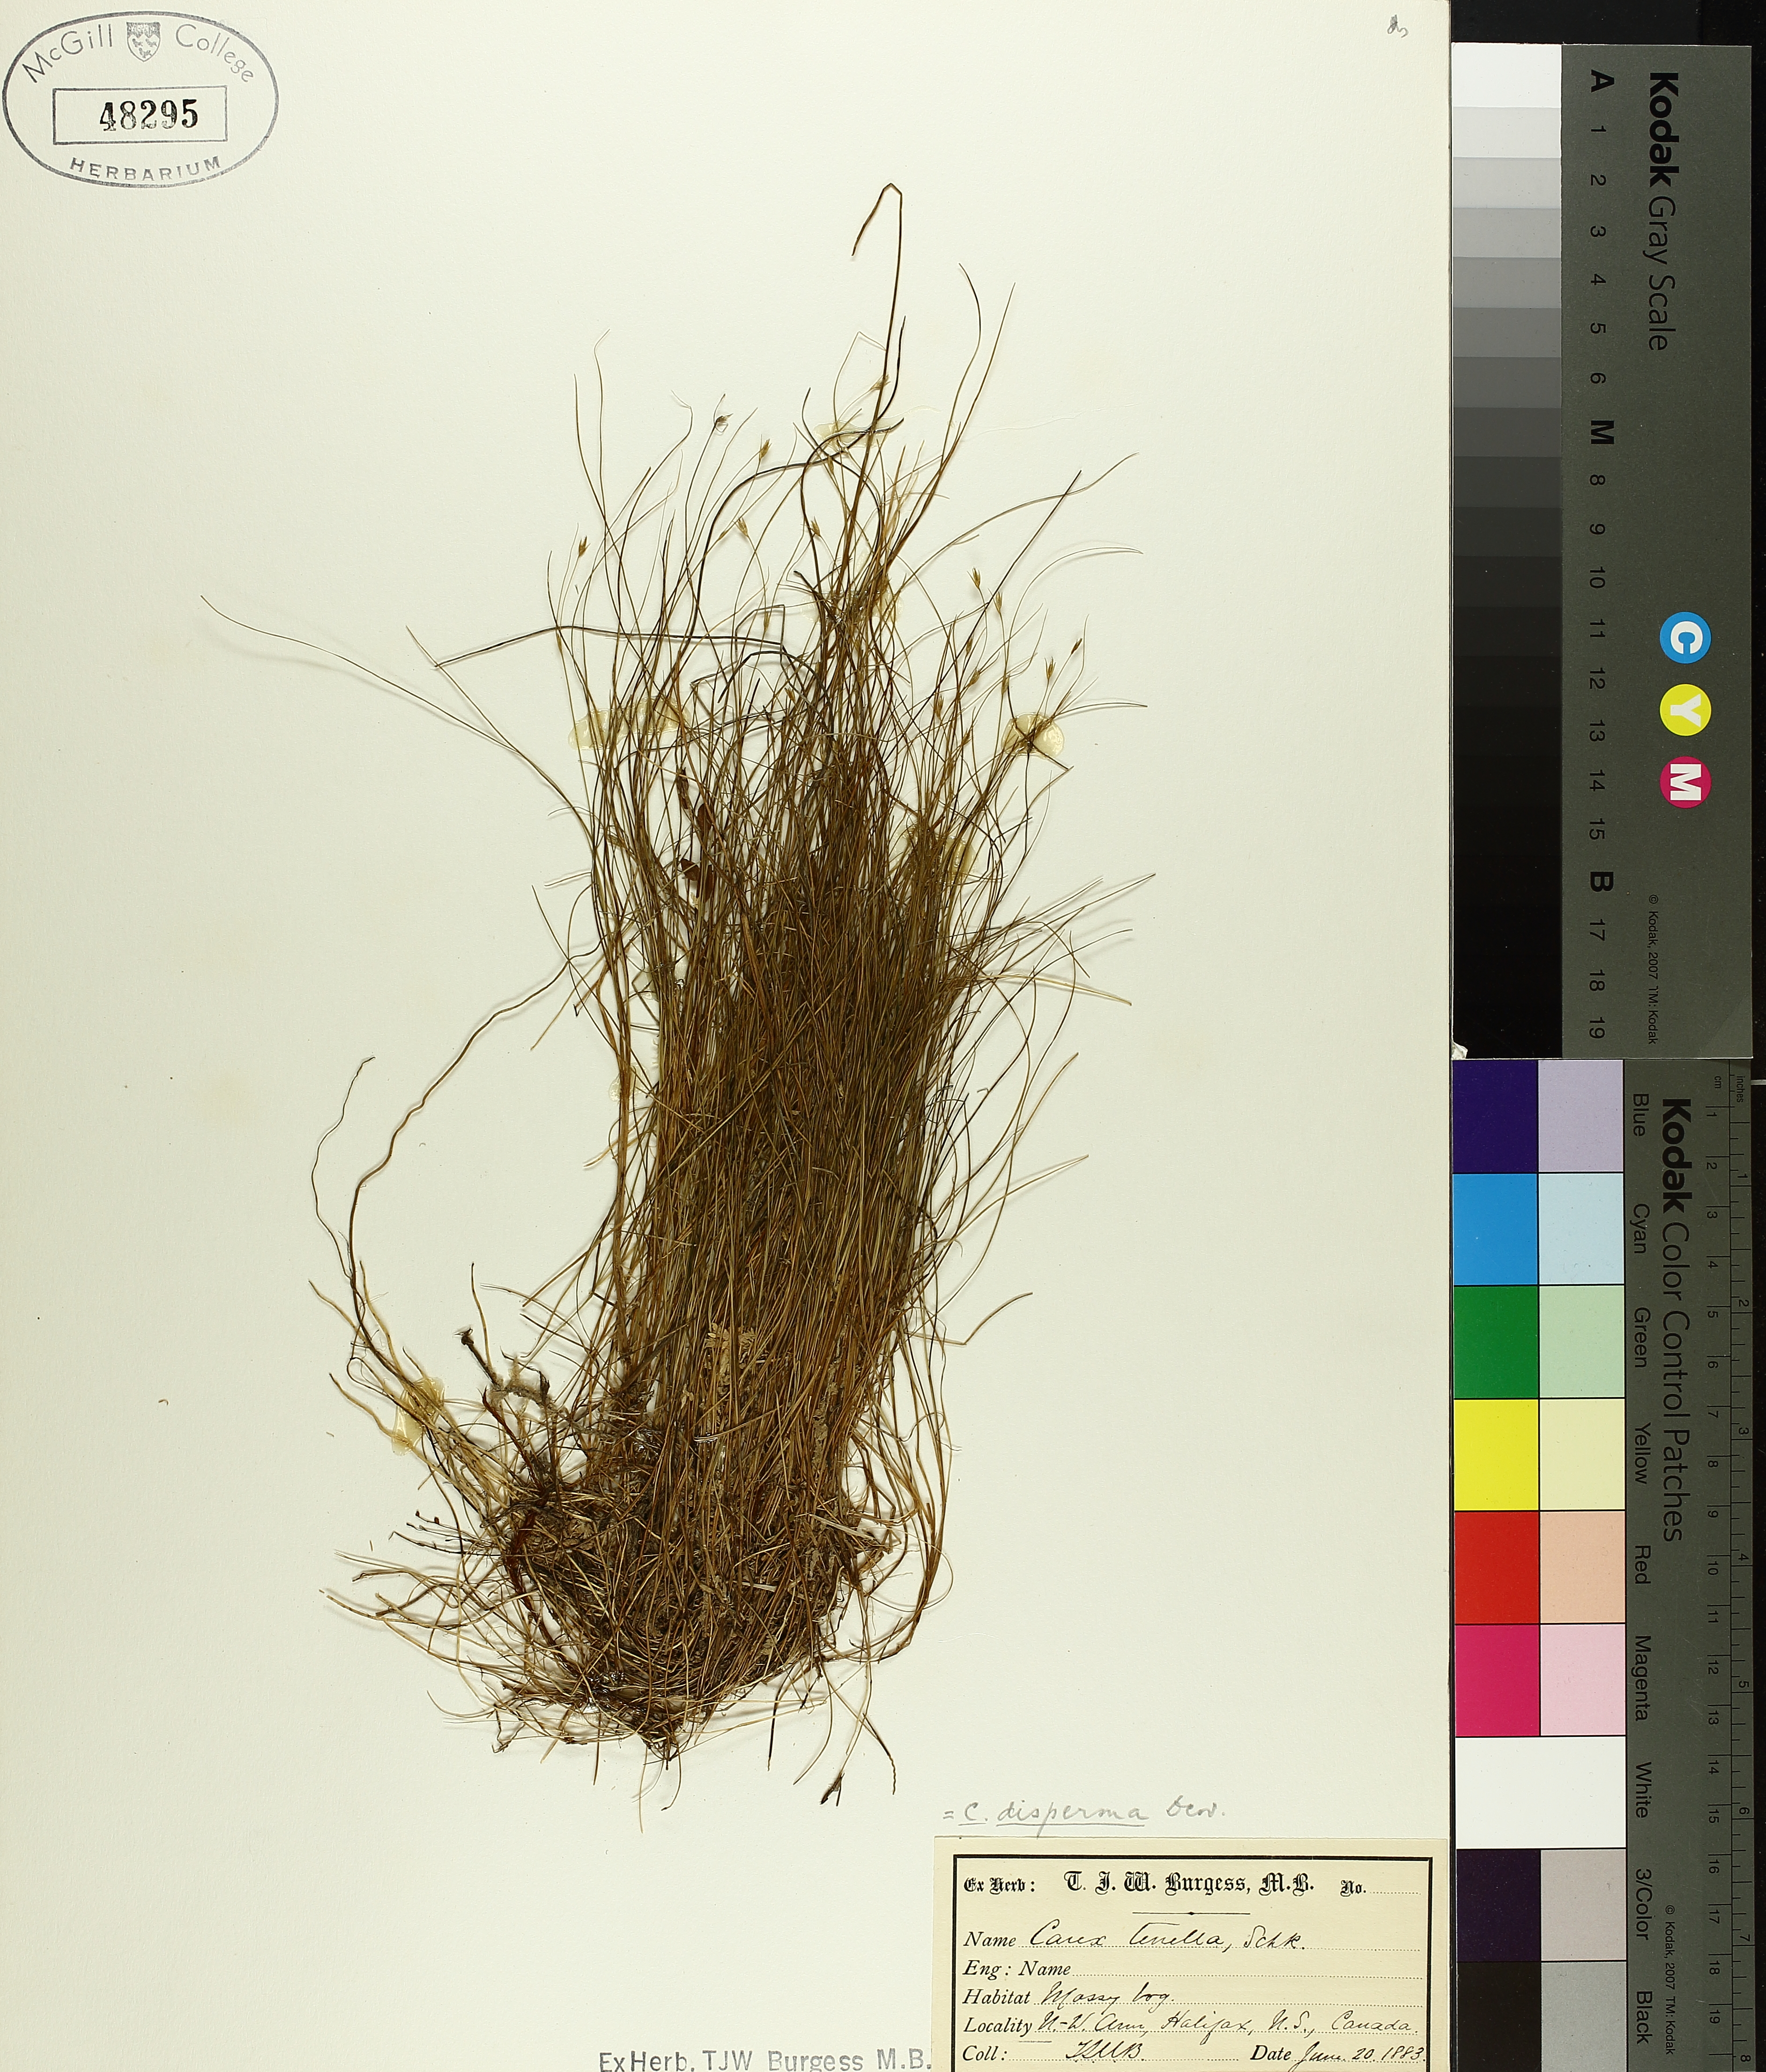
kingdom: Plantae
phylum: Tracheophyta
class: Liliopsida
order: Poales
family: Cyperaceae
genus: Carex
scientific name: Carex disperma
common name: Short-leaved sedge
